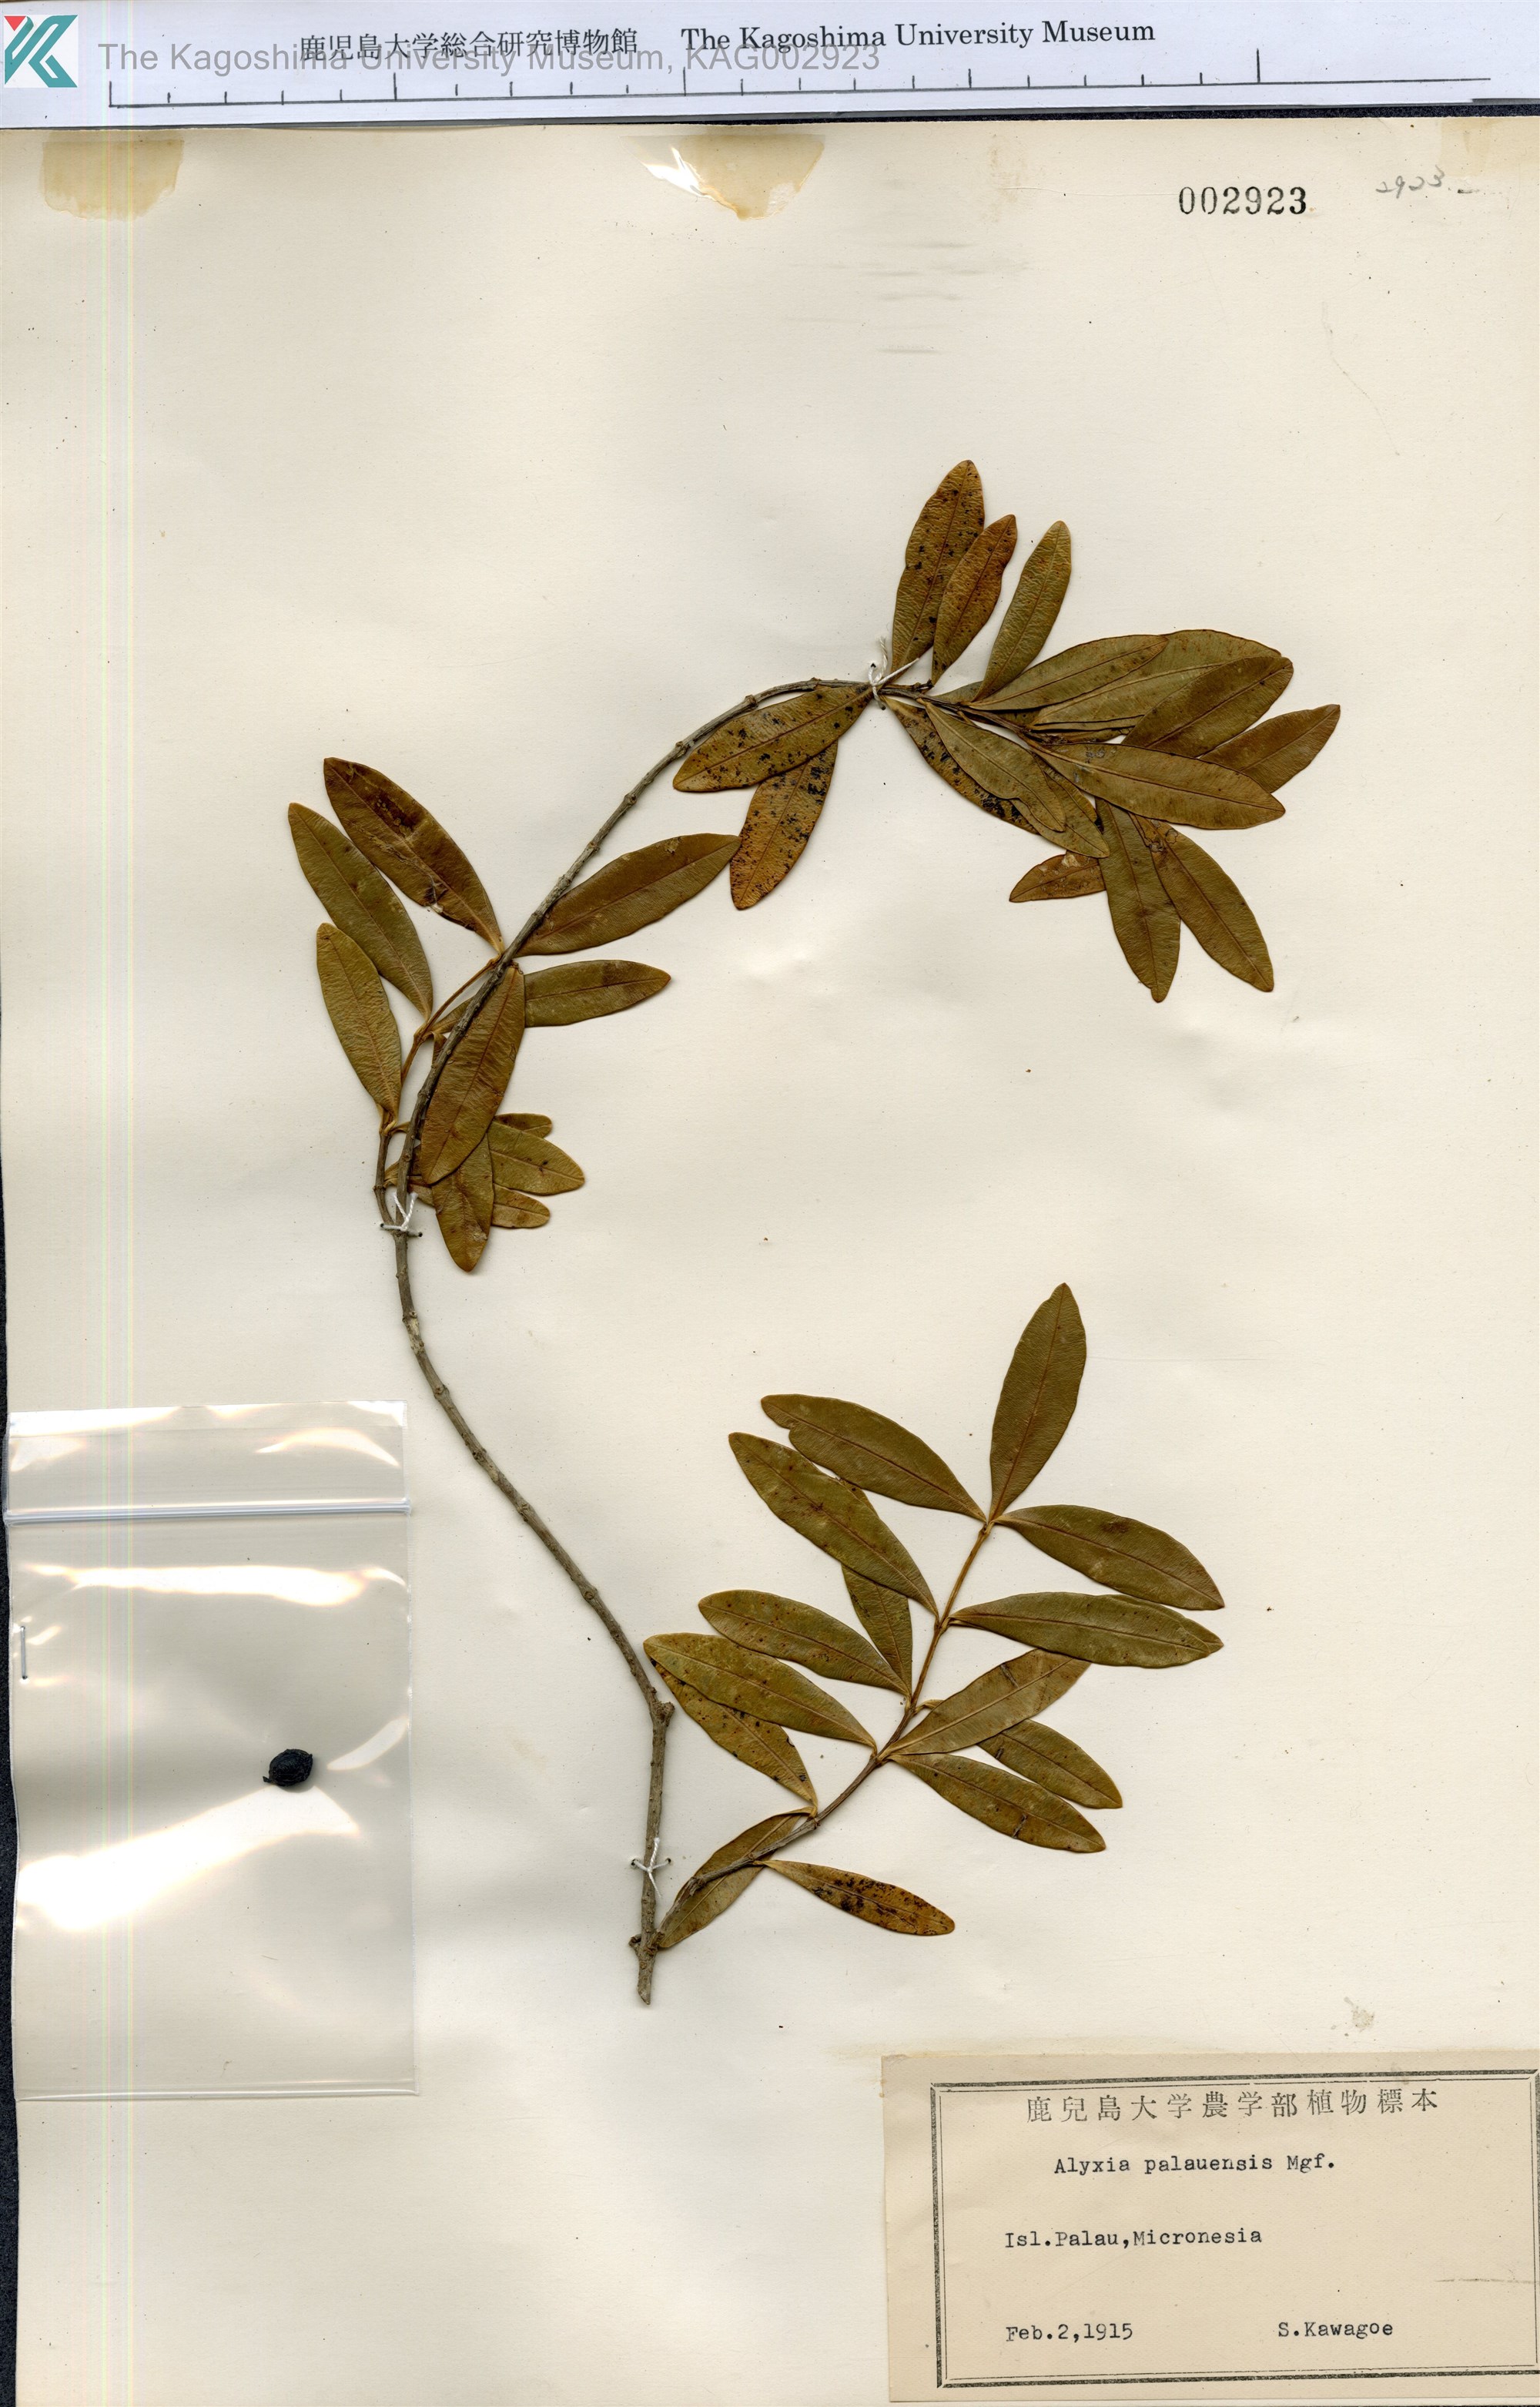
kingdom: Plantae
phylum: Tracheophyta
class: Magnoliopsida
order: Gentianales
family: Apocynaceae
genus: Alyxia
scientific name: Alyxia stellata
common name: Maile
